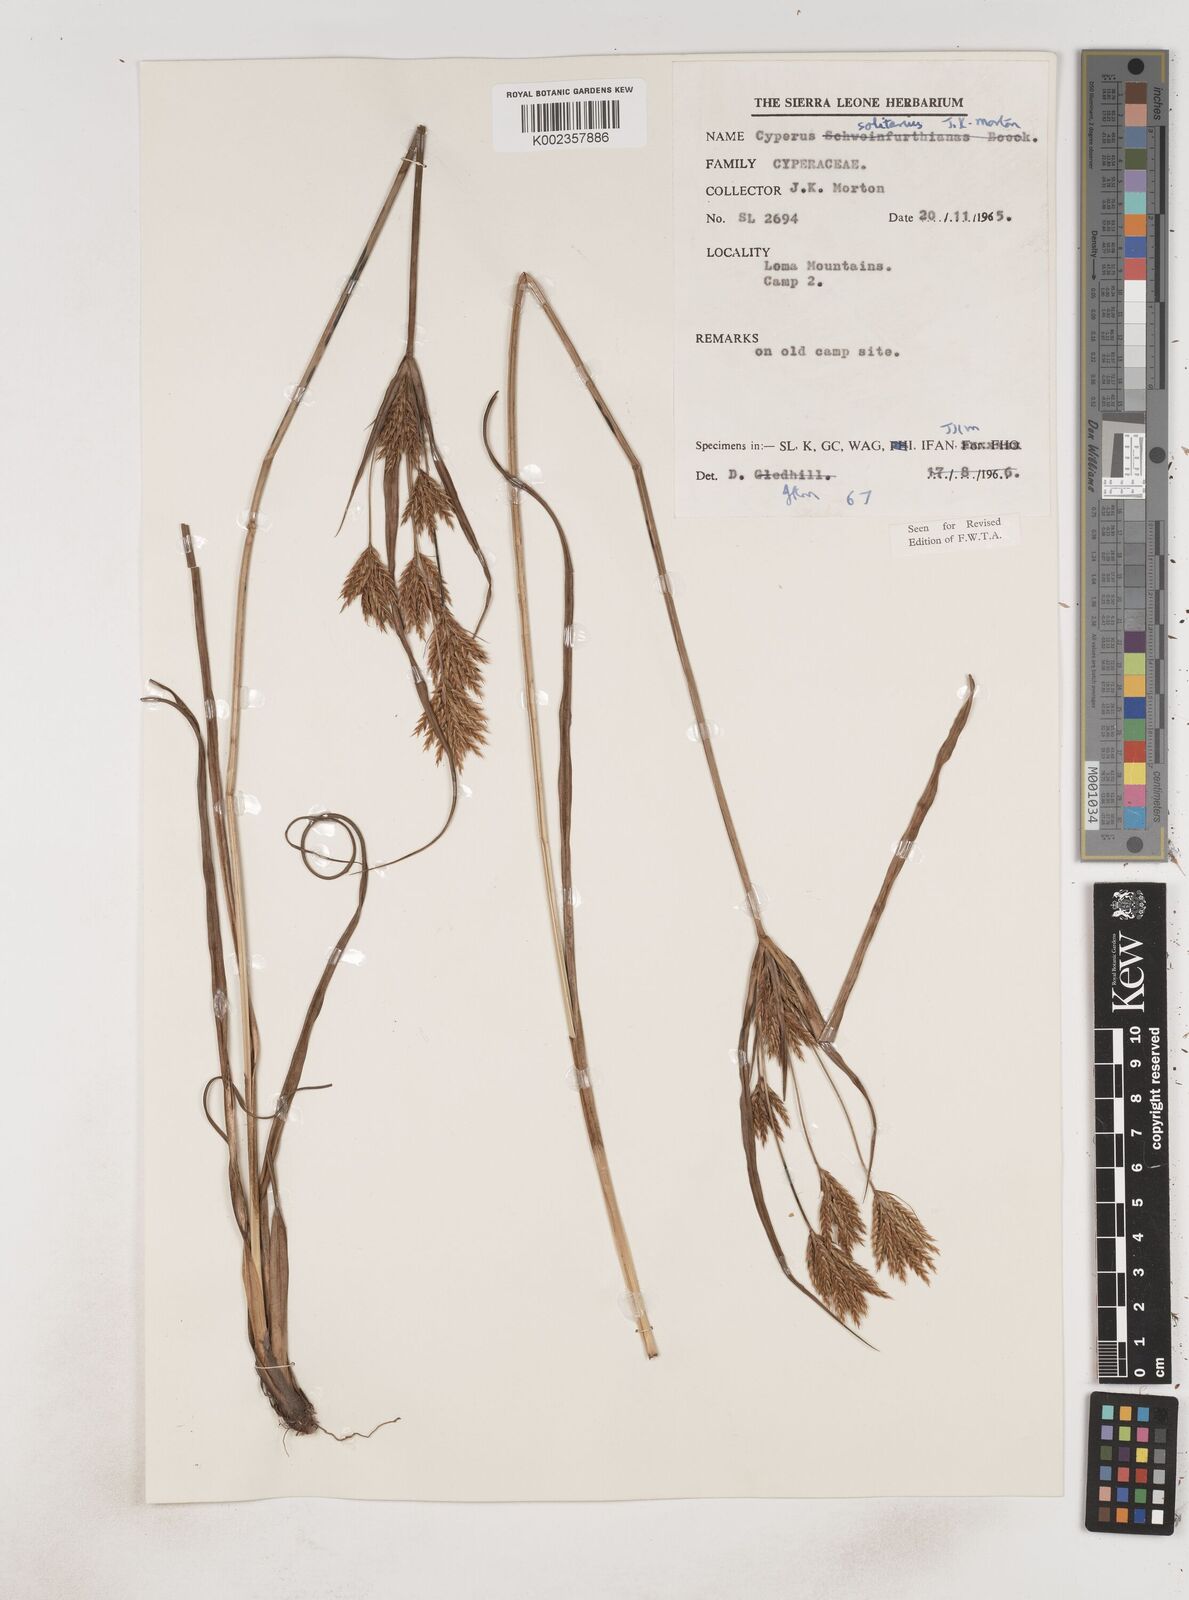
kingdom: Plantae
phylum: Tracheophyta
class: Liliopsida
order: Poales
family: Cyperaceae
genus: Cyperus
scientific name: Cyperus
